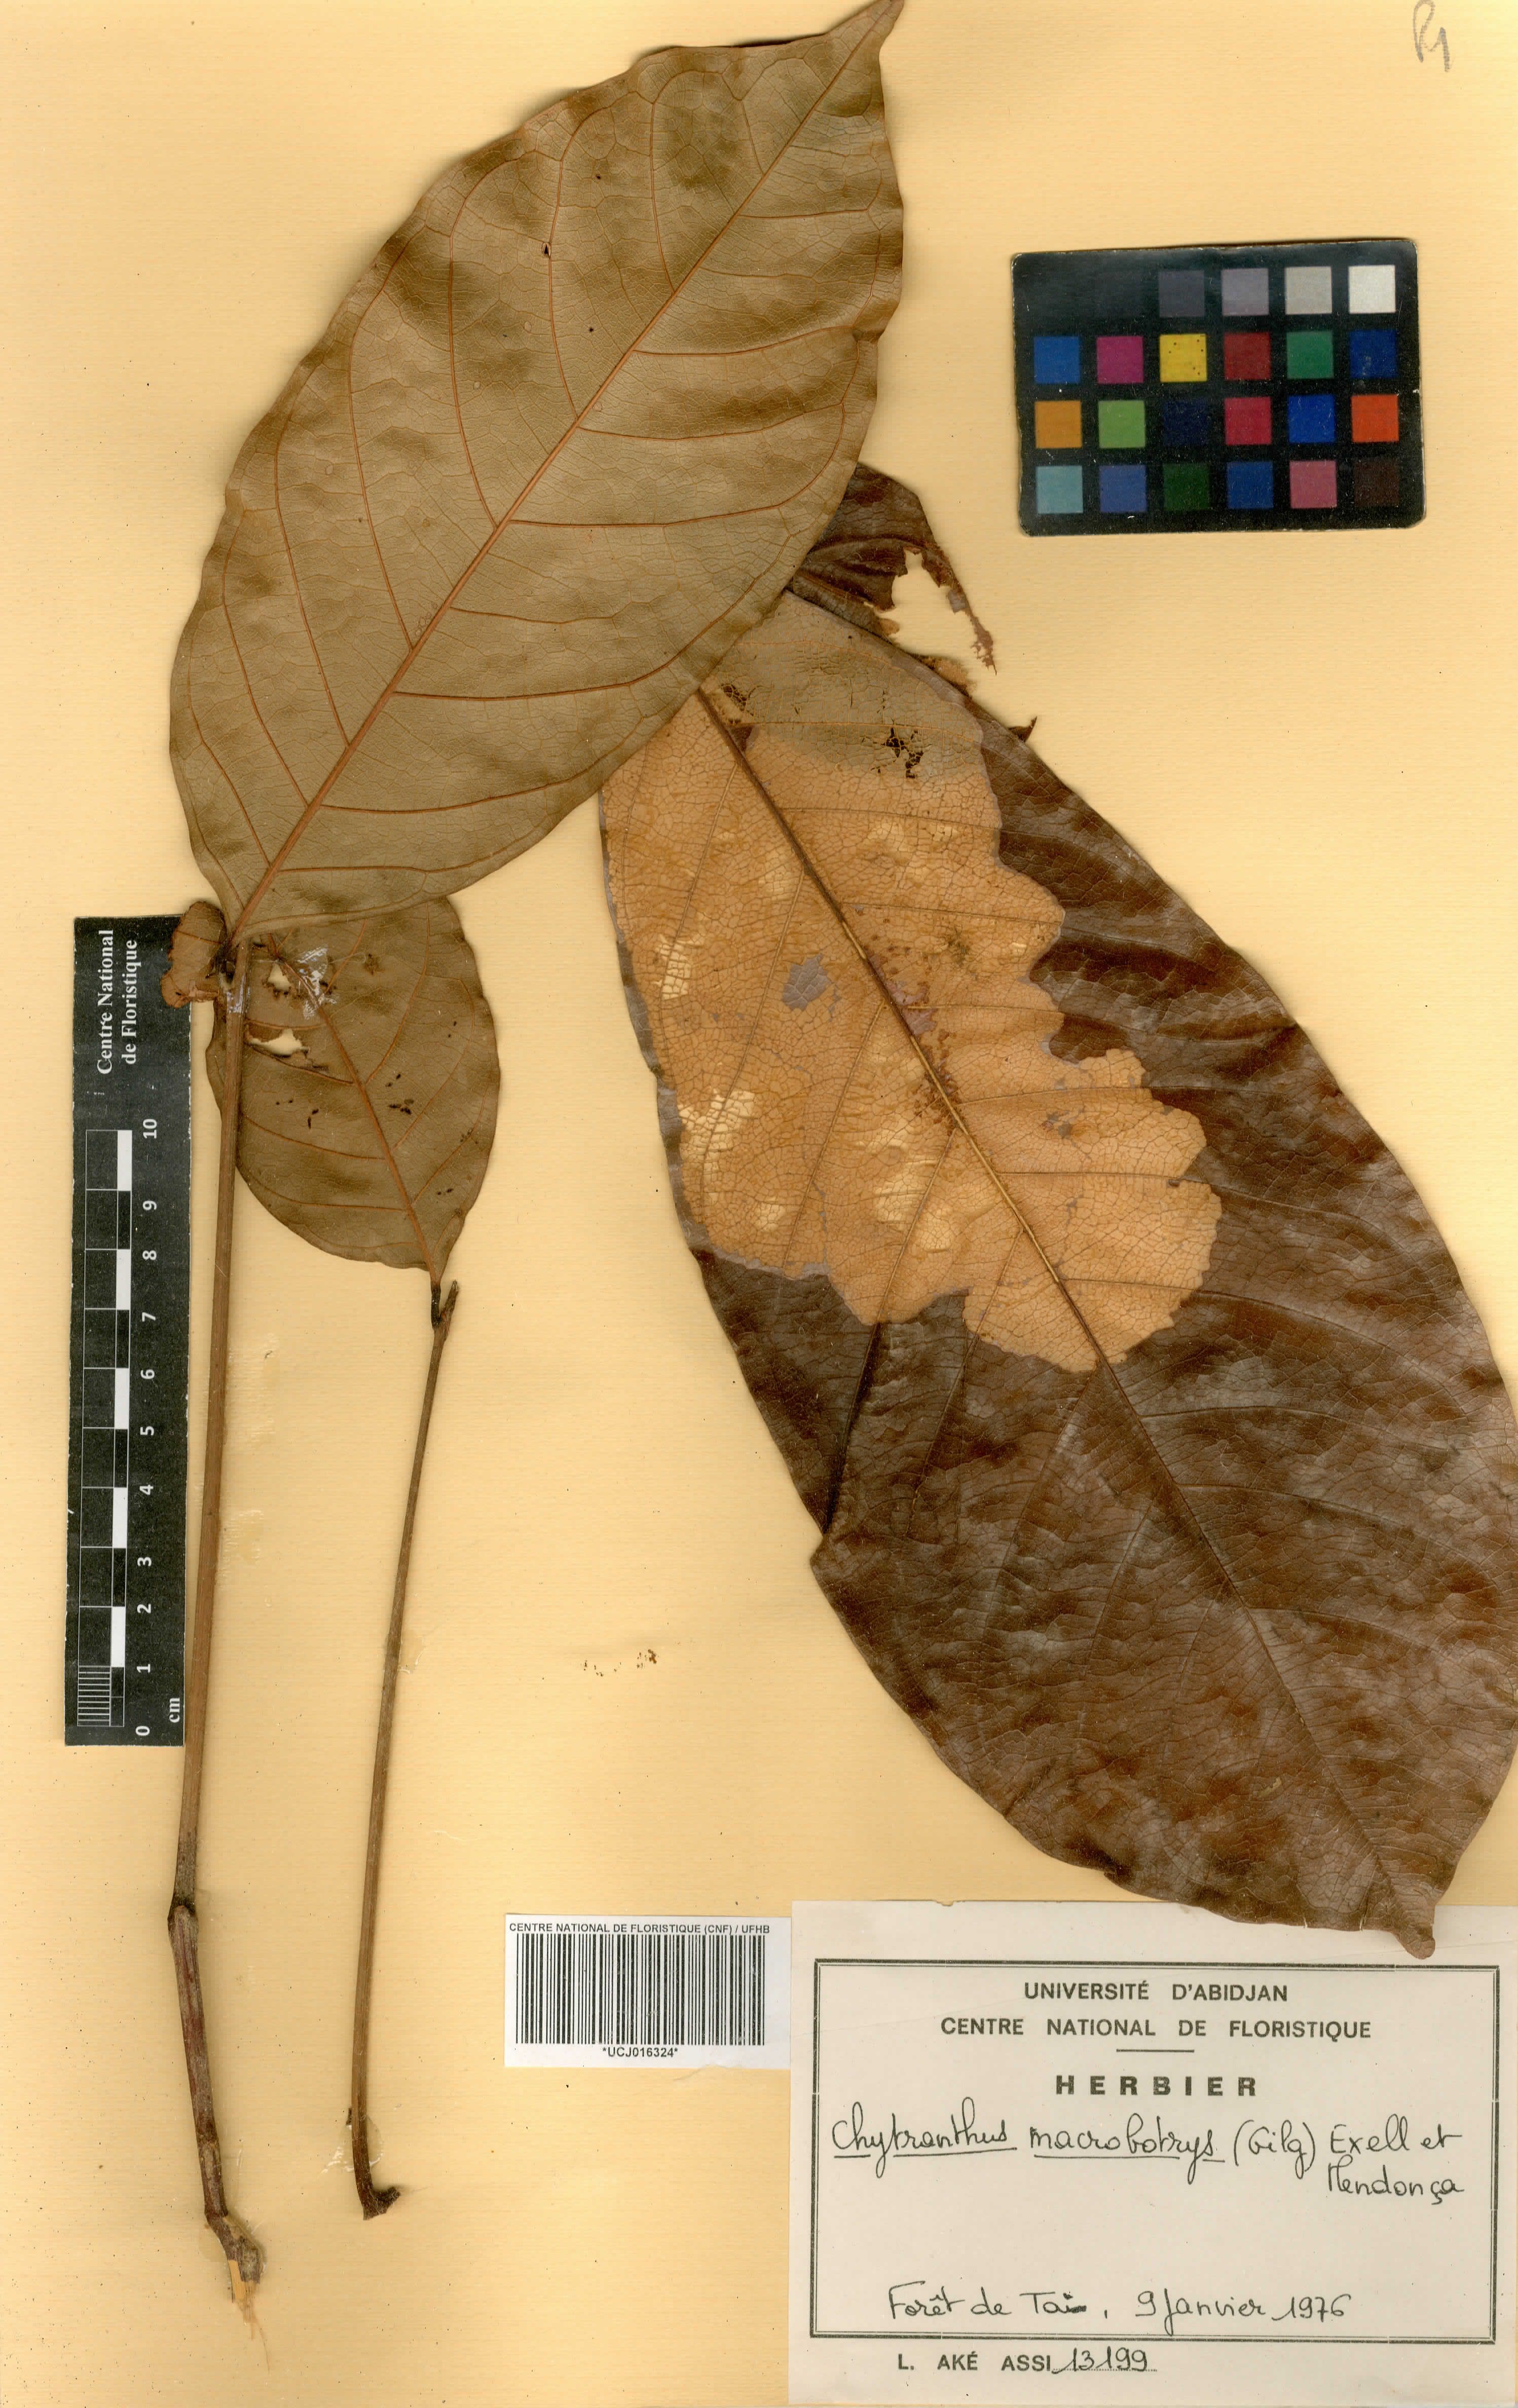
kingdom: Plantae
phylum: Tracheophyta
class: Magnoliopsida
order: Sapindales
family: Sapindaceae
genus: Chytranthus
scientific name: Chytranthus macrobotrys
